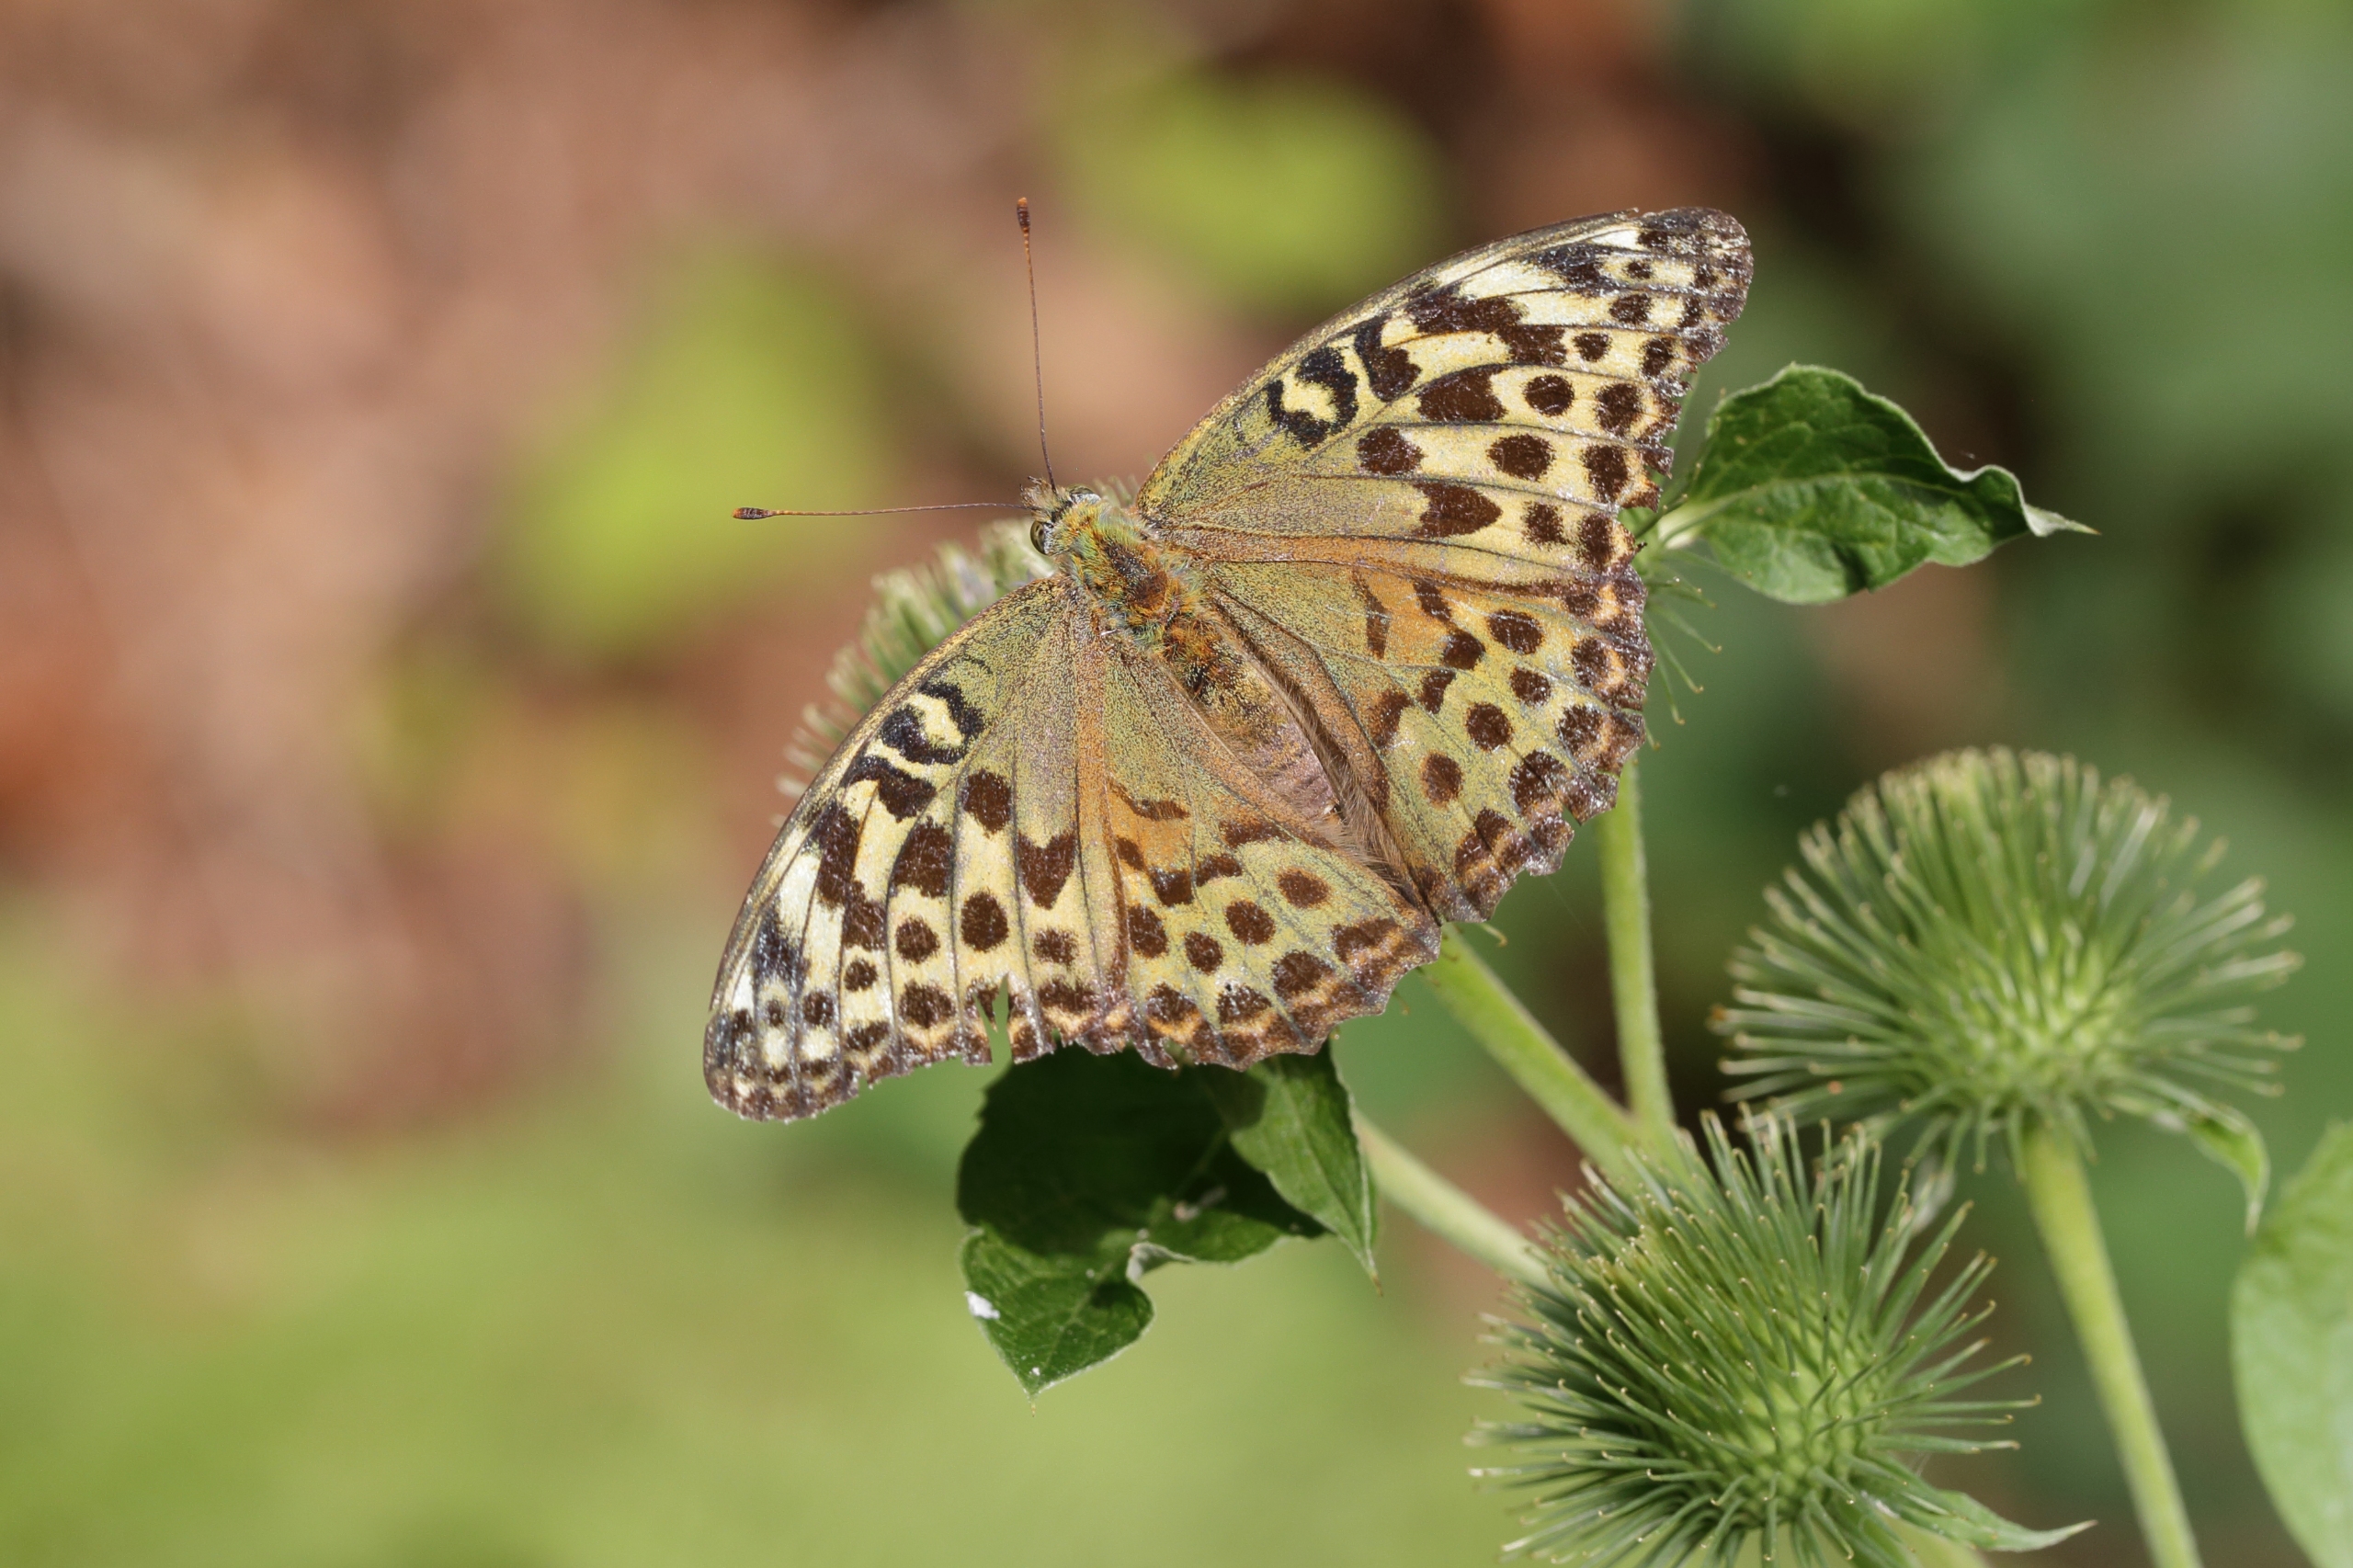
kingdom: Animalia
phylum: Arthropoda
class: Insecta
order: Lepidoptera
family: Nymphalidae
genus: Argynnis
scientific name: Argynnis paphia
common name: Kejserkåbe
